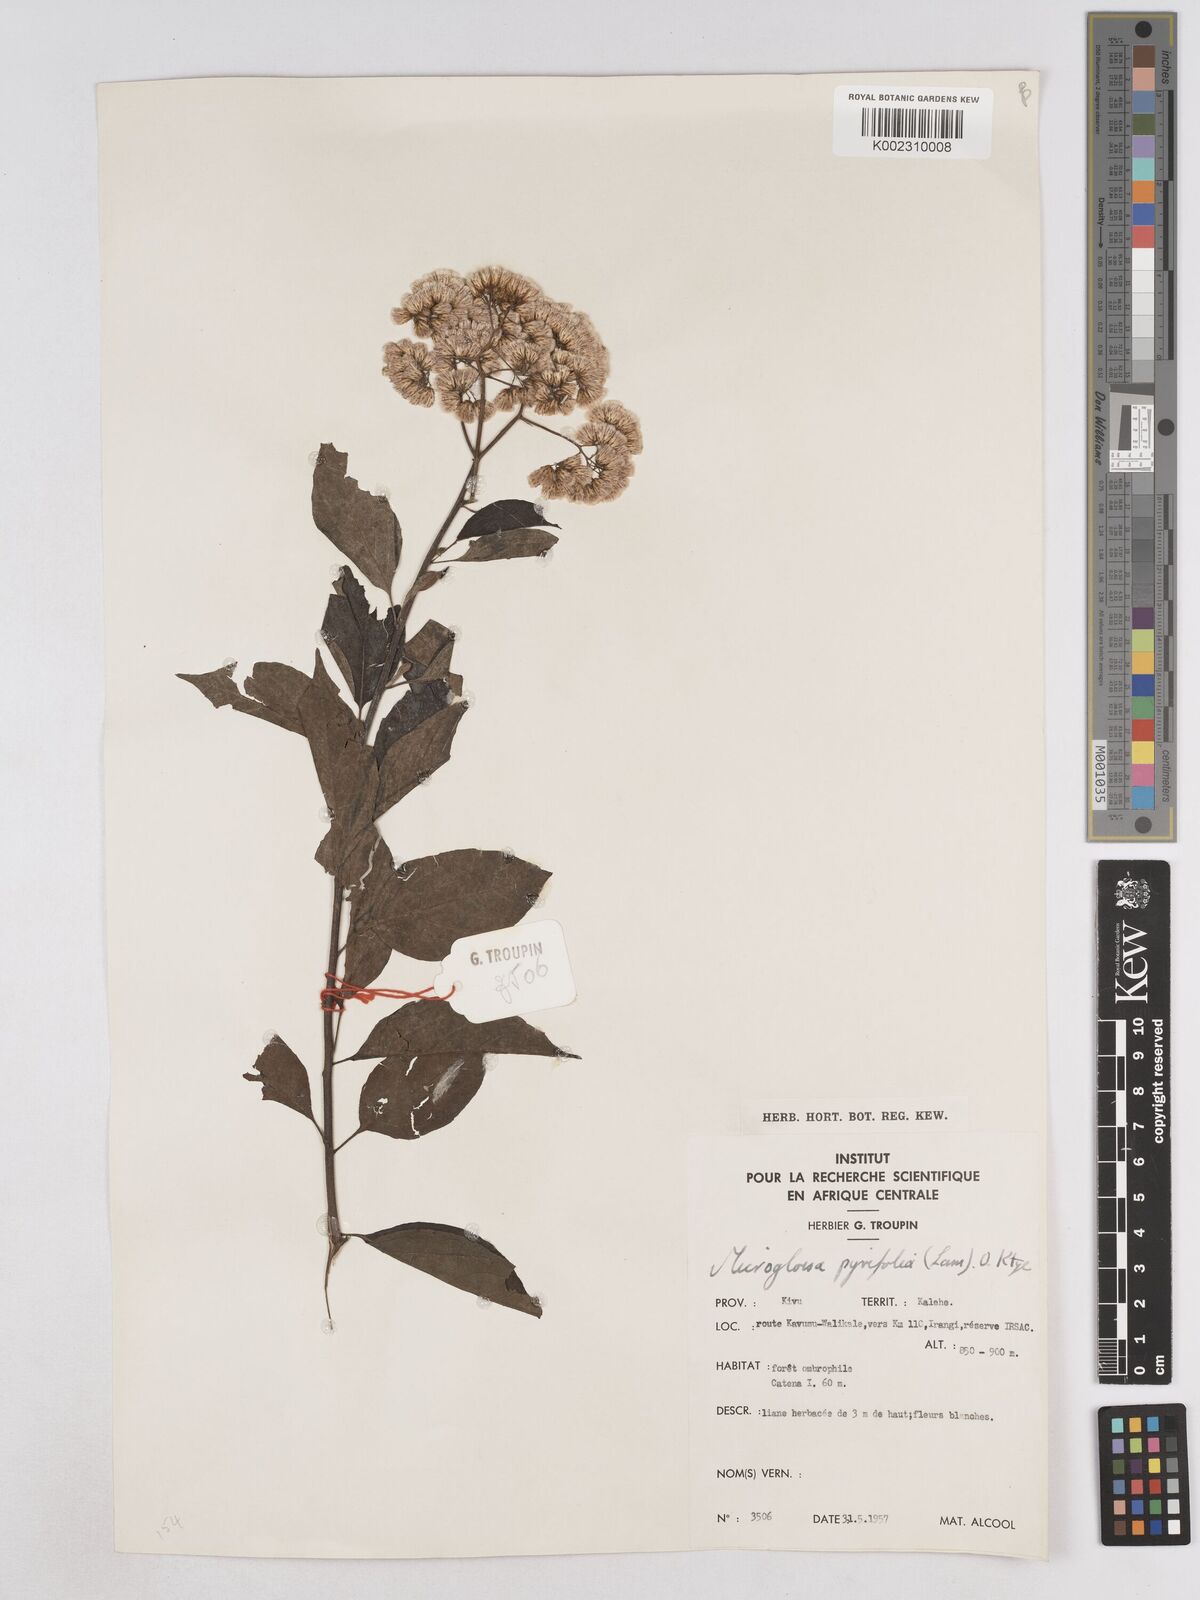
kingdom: Plantae
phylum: Tracheophyta
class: Magnoliopsida
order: Asterales
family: Asteraceae
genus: Microglossa
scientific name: Microglossa pyrifolia
